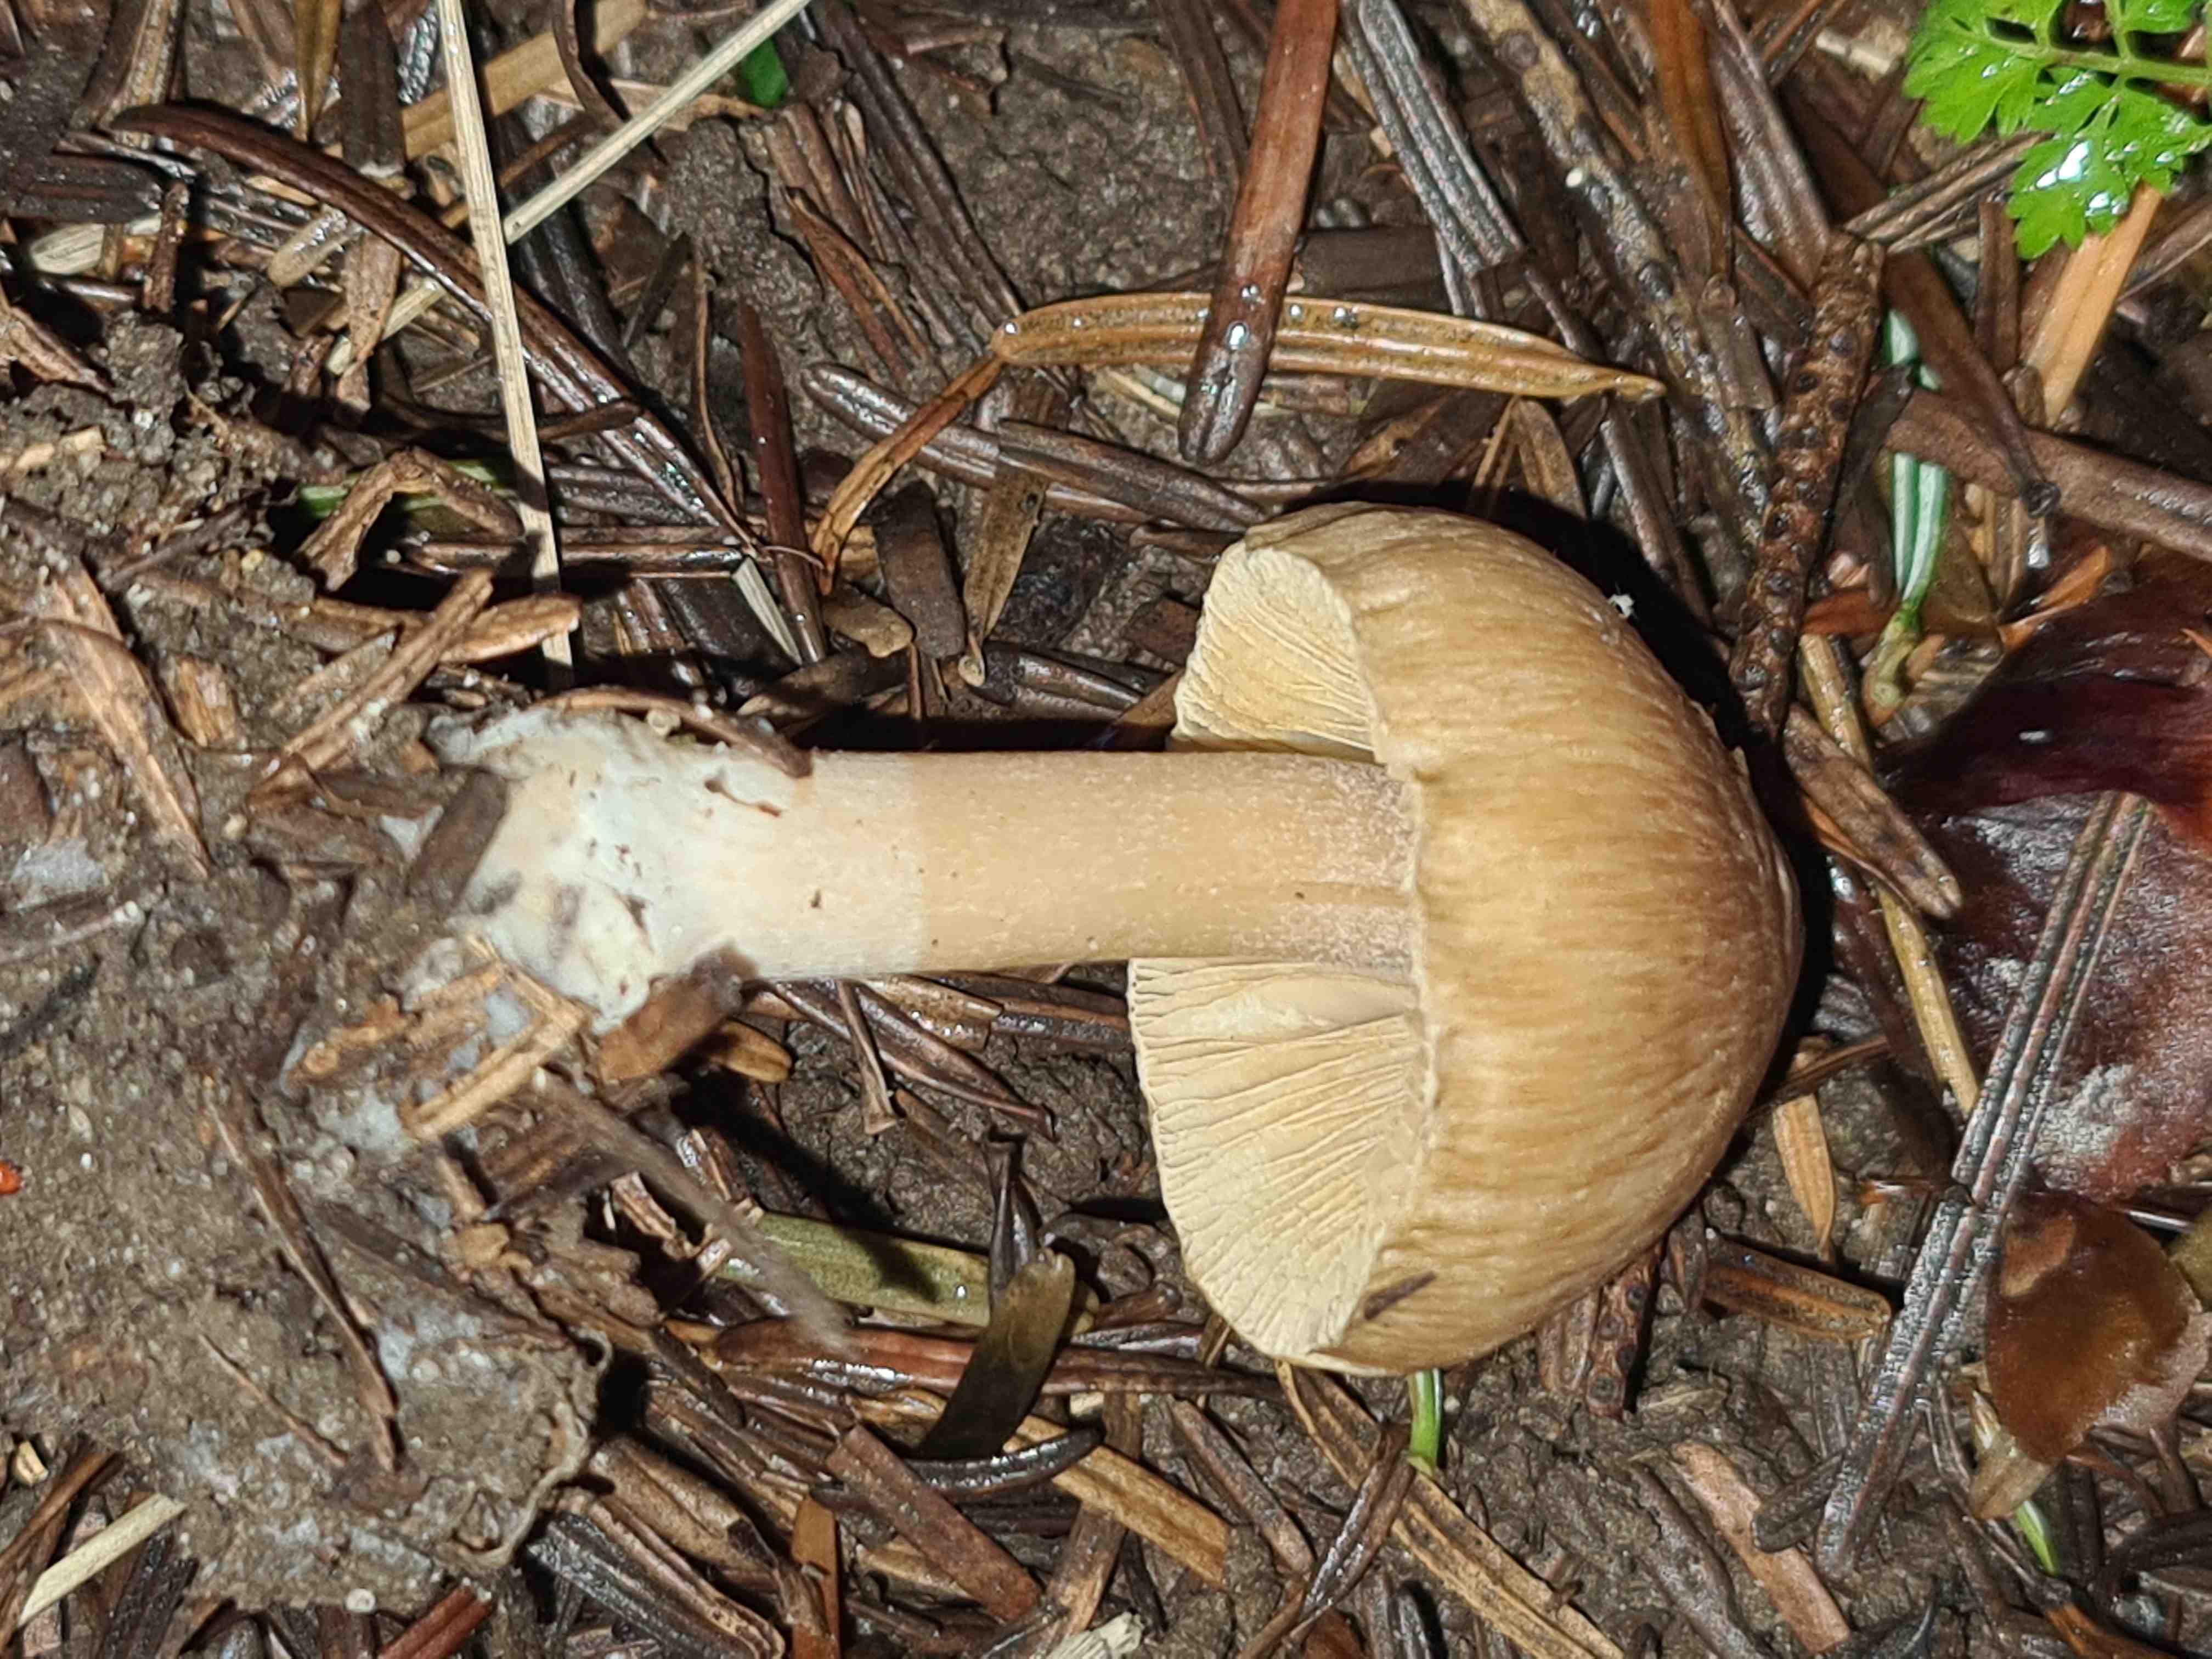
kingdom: Fungi
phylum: Basidiomycota
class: Agaricomycetes
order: Agaricales
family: Inocybaceae
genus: Inocybe
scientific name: Inocybe
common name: trævlhat
